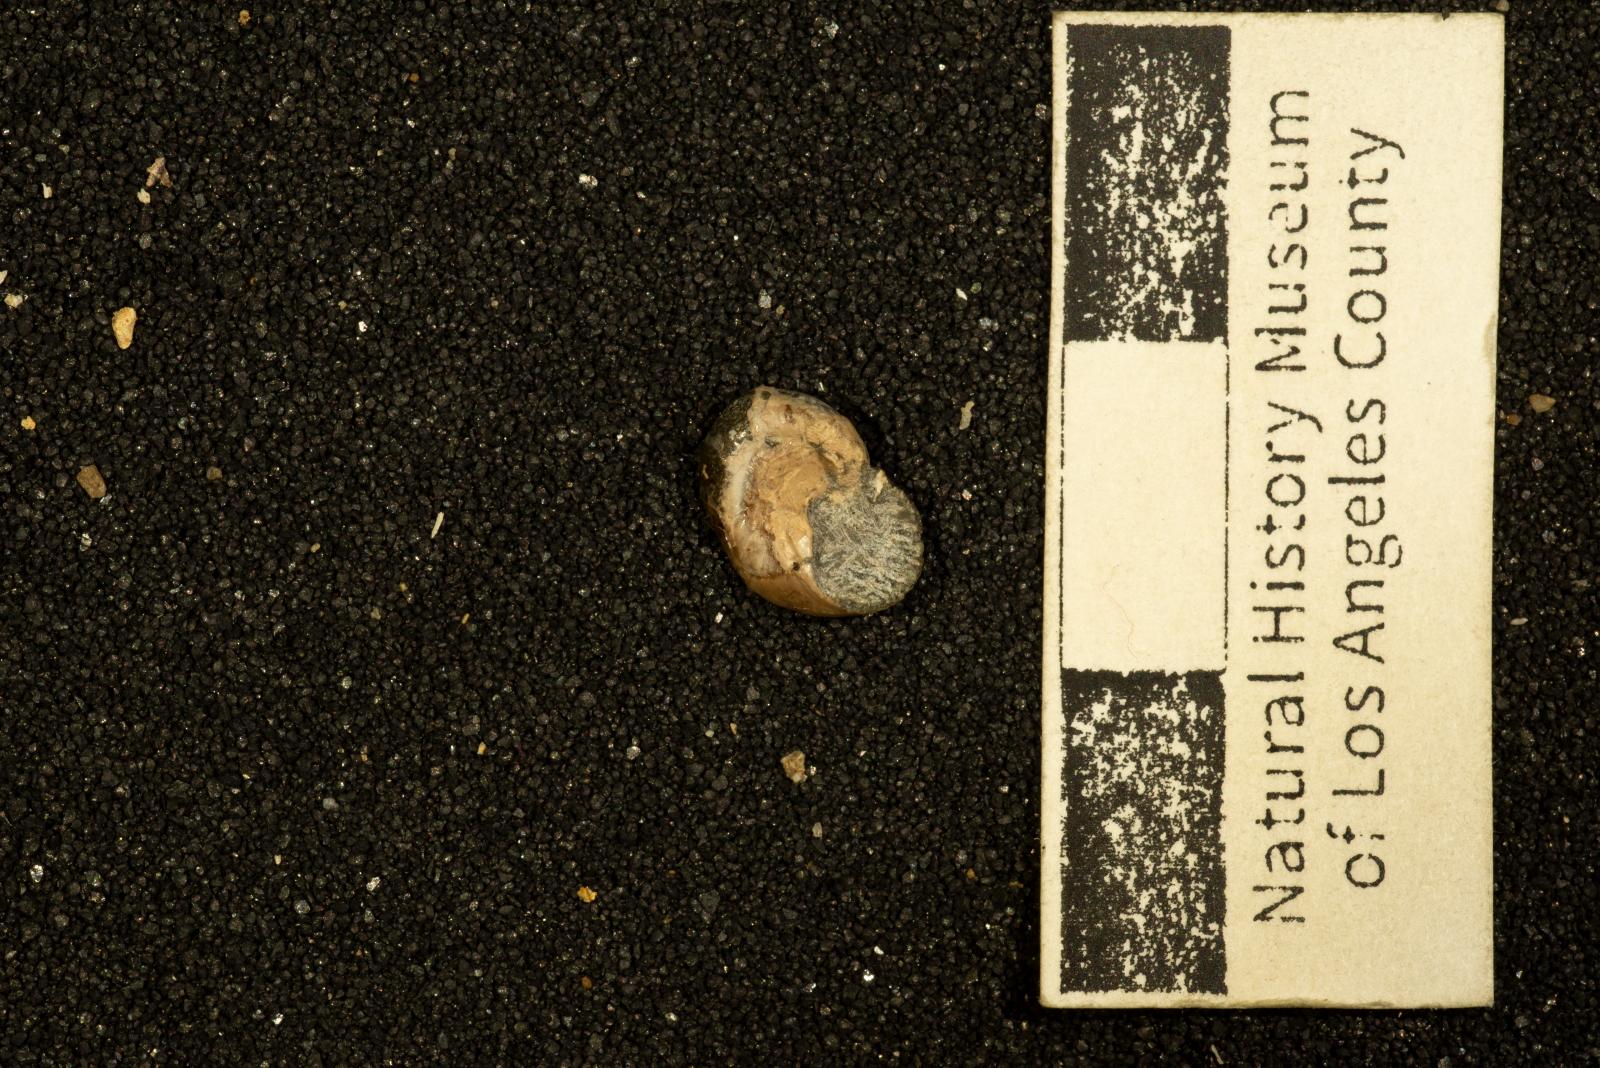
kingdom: Animalia
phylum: Mollusca
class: Gastropoda
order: Trochida
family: Tegulidae
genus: Tegula
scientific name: Tegula
